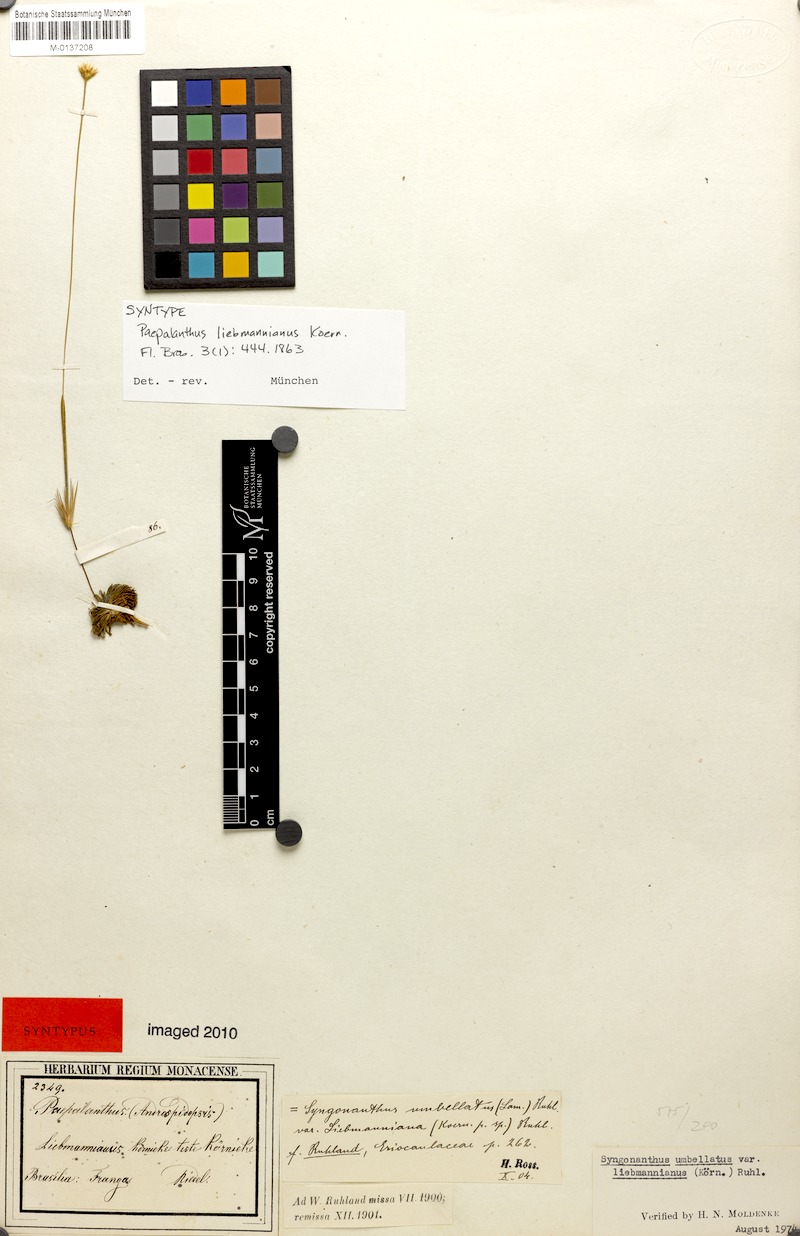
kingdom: Plantae
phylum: Tracheophyta
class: Liliopsida
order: Poales
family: Eriocaulaceae
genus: Syngonanthus
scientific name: Syngonanthus umbellatus
